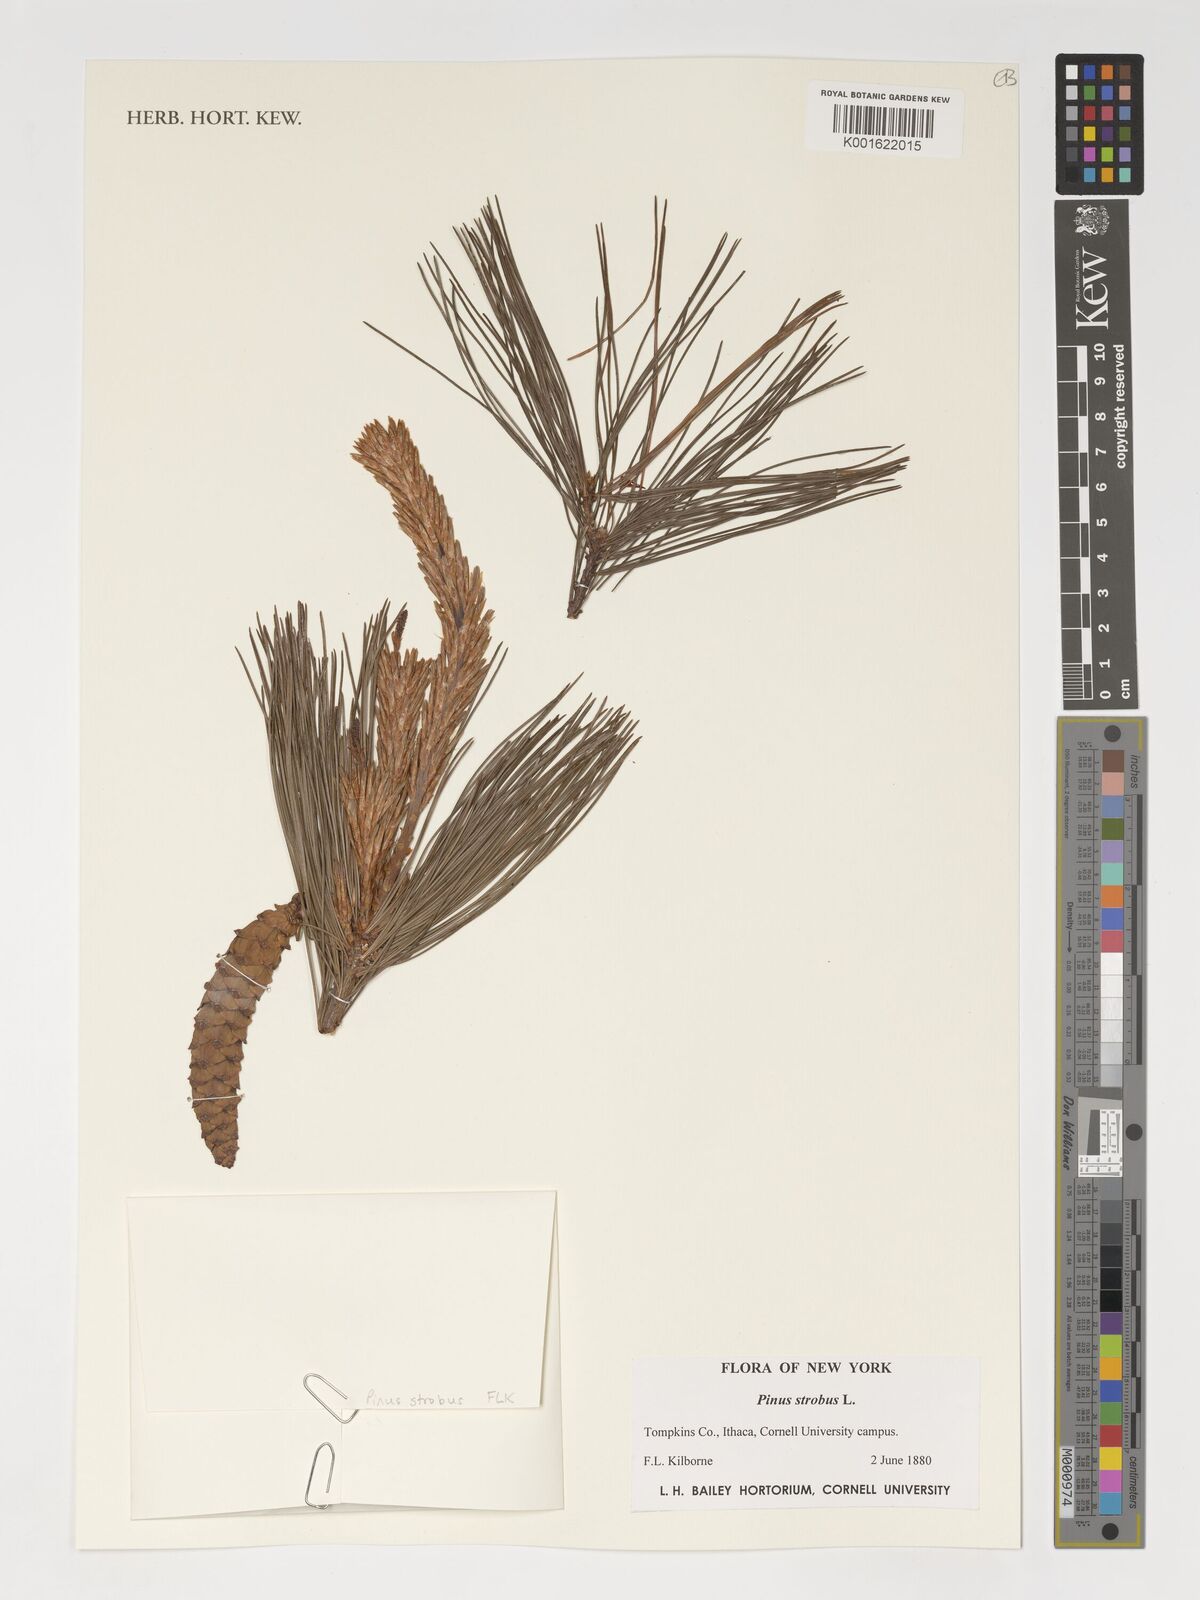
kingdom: Plantae
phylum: Tracheophyta
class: Pinopsida
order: Pinales
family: Pinaceae
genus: Pinus
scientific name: Pinus strobus
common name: Weymouth pine
